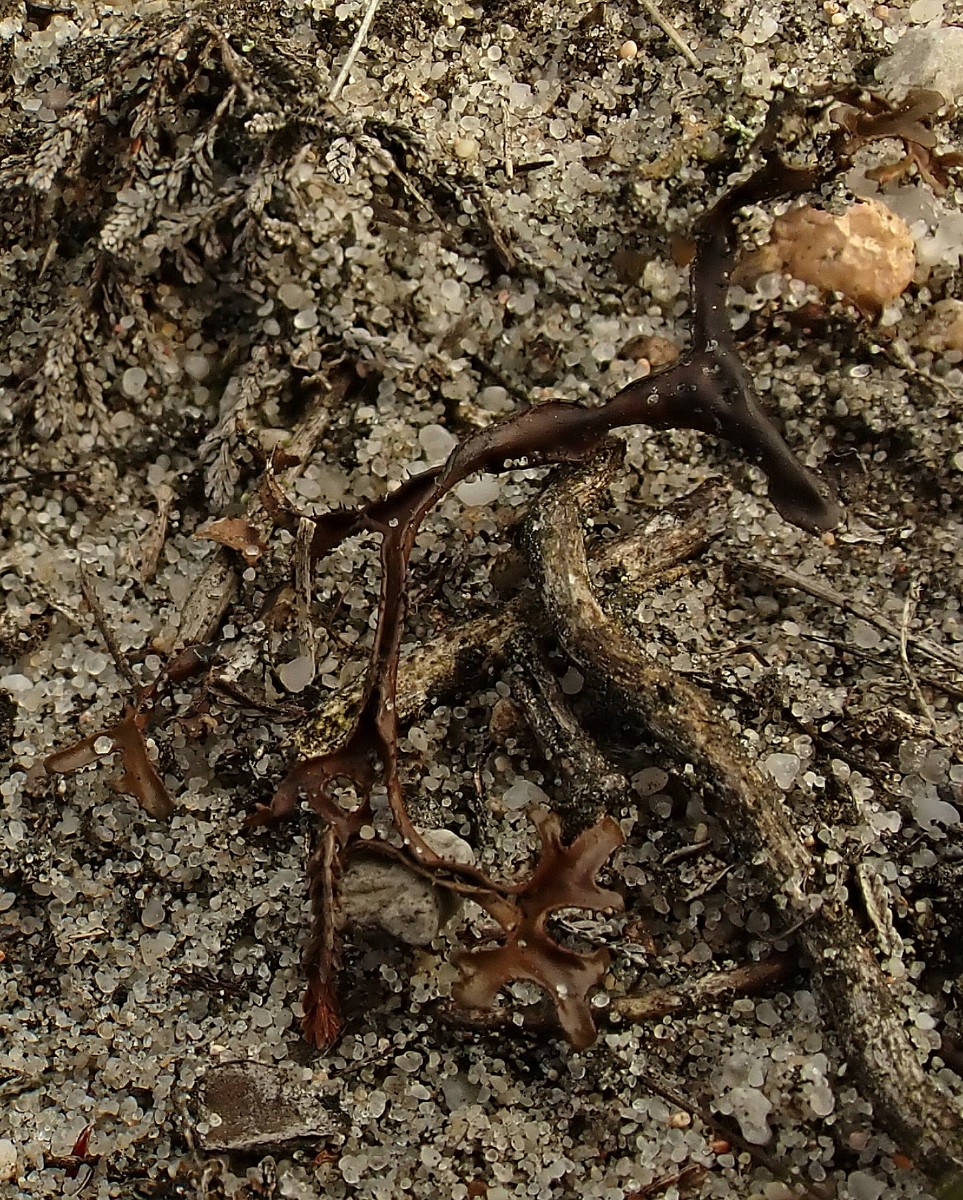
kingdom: Fungi
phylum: Ascomycota
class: Lecanoromycetes
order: Lecanorales
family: Parmeliaceae
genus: Cetraria
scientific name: Cetraria islandica
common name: islandsk kruslav
